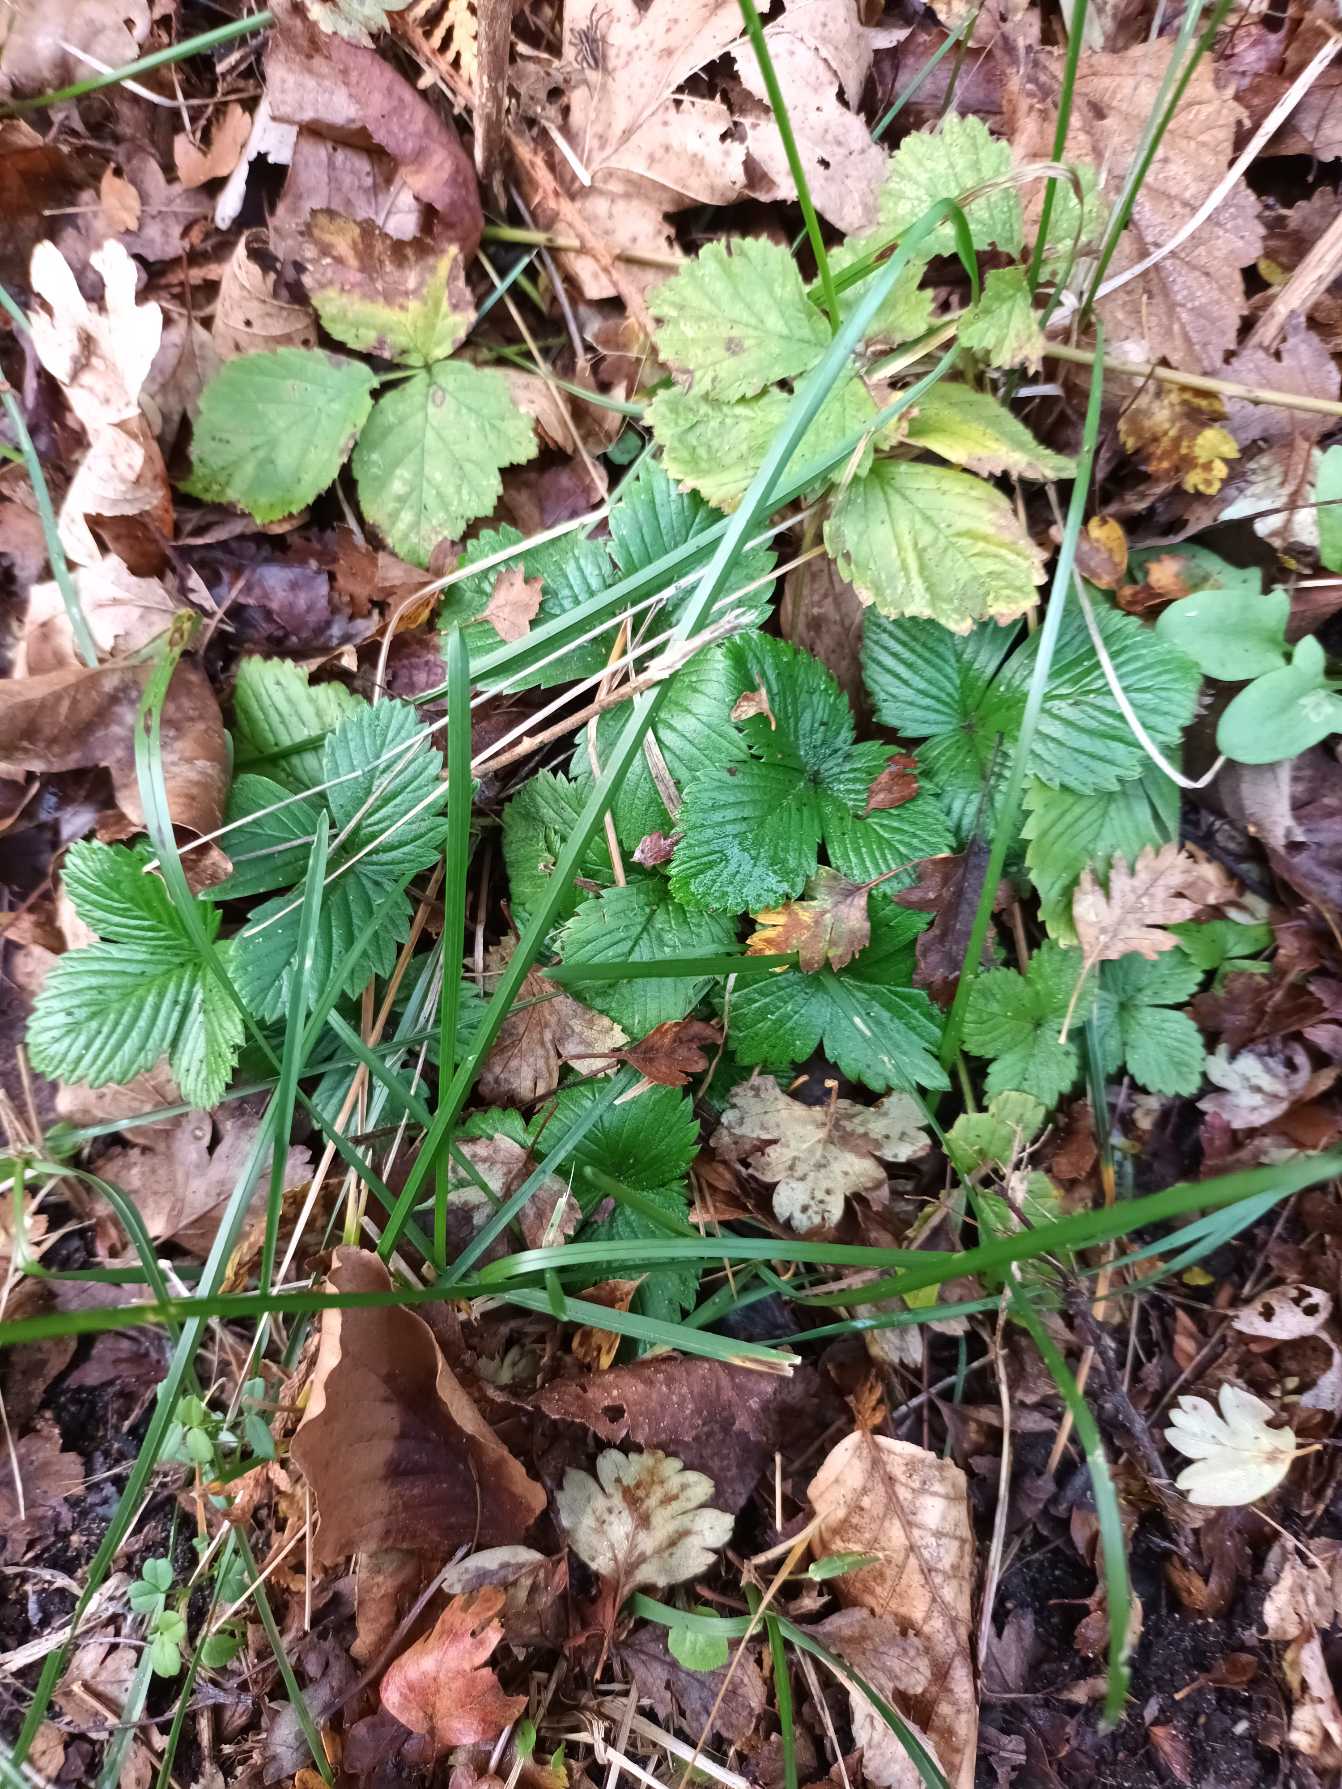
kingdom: Plantae
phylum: Tracheophyta
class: Magnoliopsida
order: Rosales
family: Rosaceae
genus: Fragaria
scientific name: Fragaria vesca
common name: Skov-jordbær
